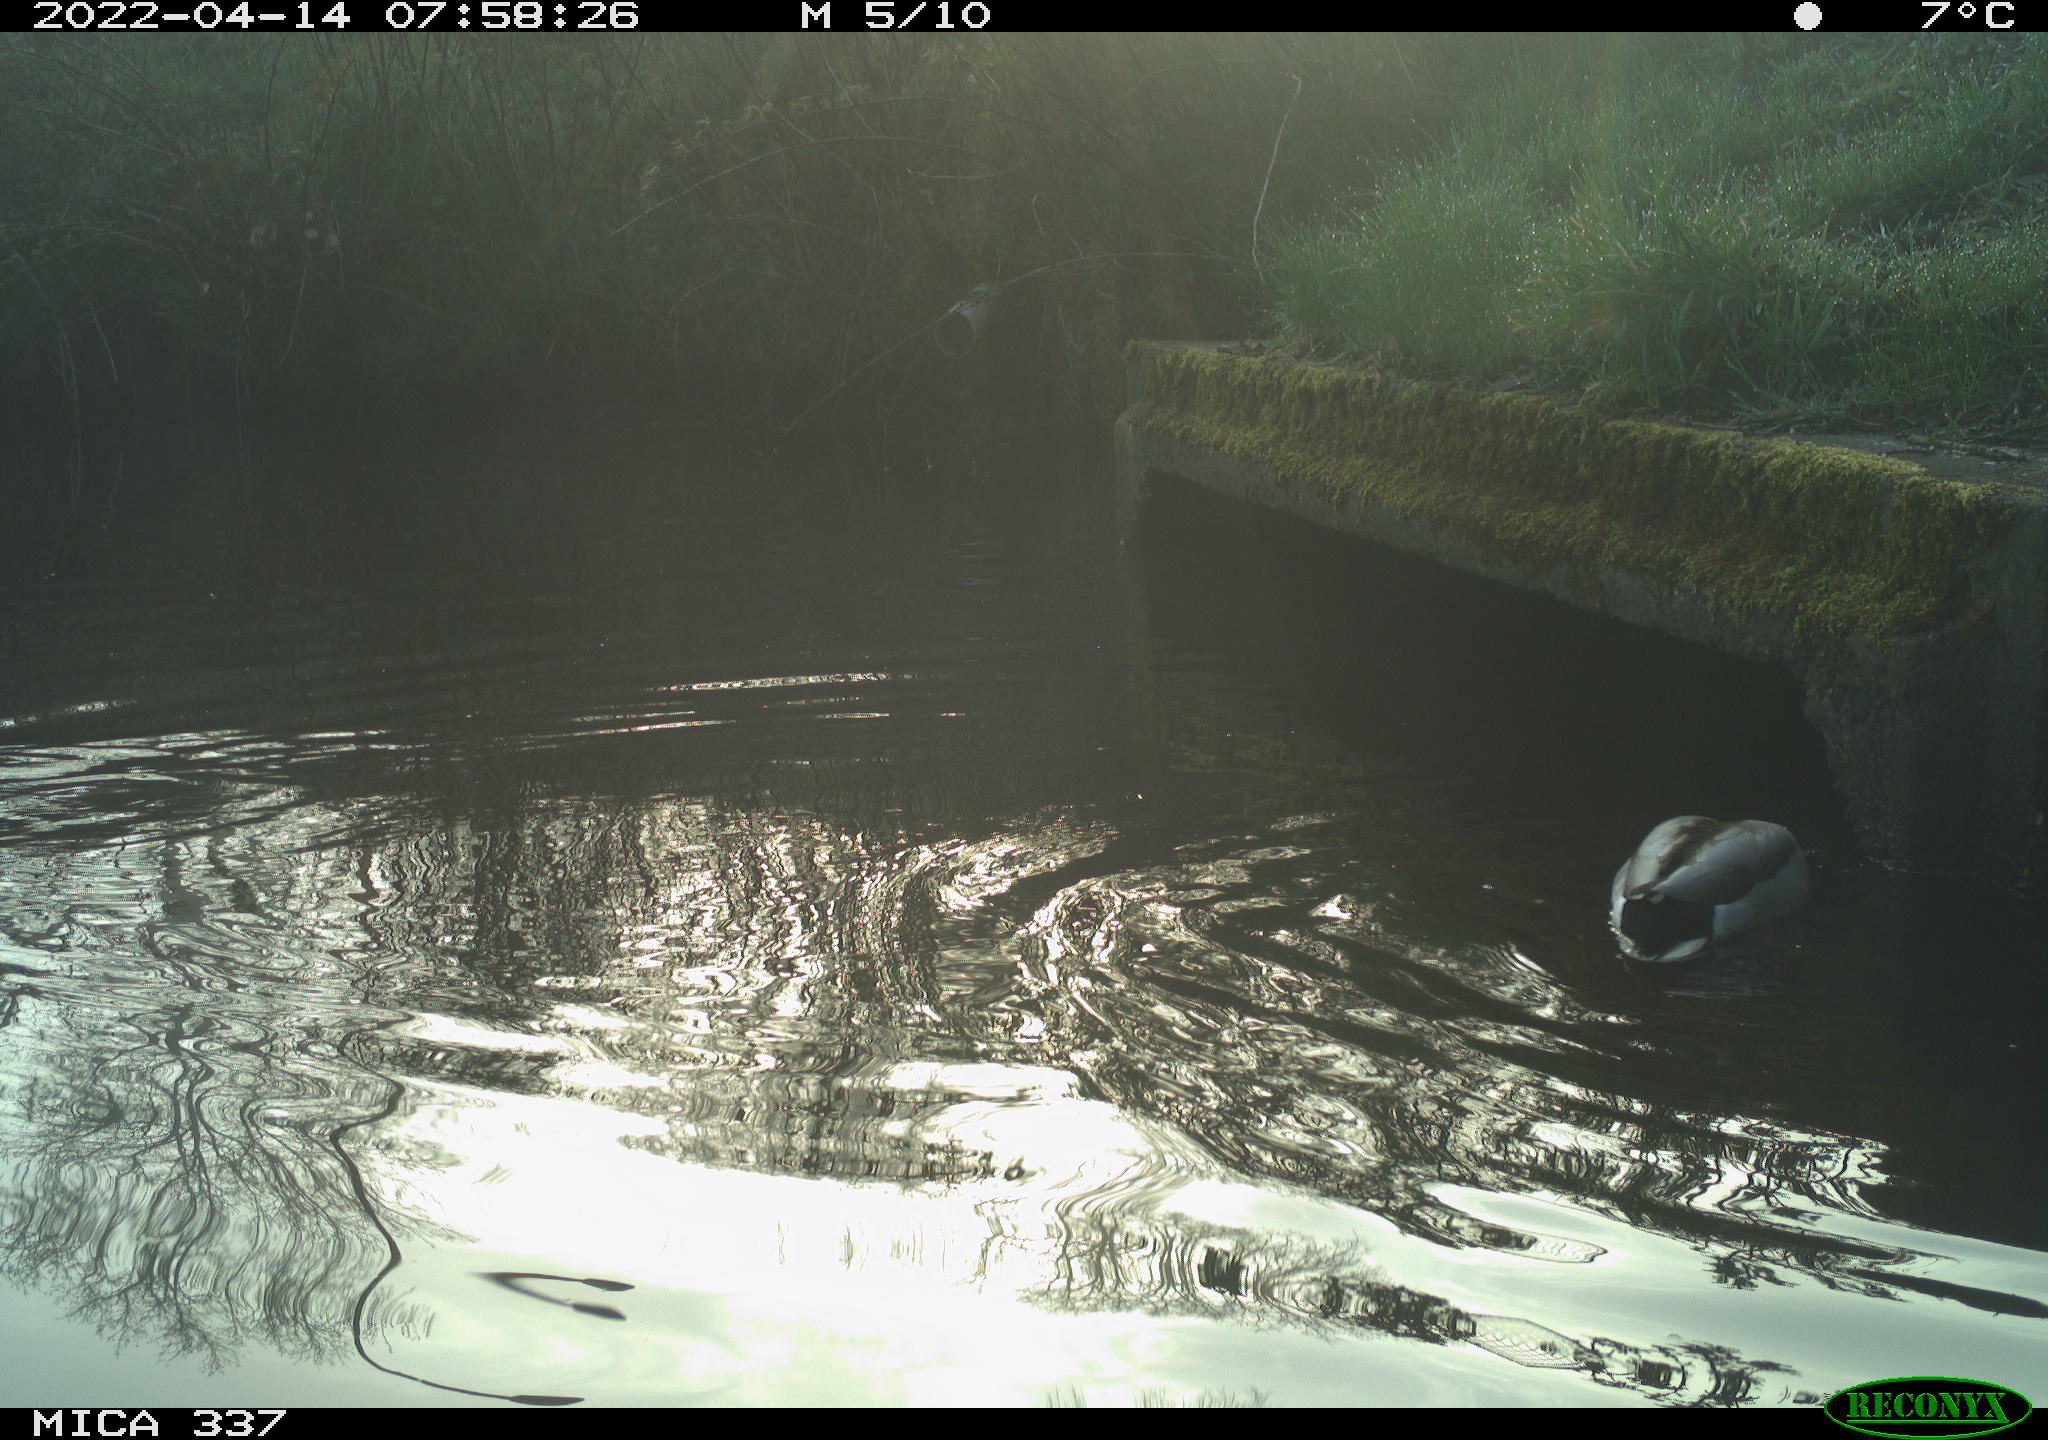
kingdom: Animalia
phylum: Chordata
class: Aves
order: Anseriformes
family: Anatidae
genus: Anas
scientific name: Anas platyrhynchos
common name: Mallard
